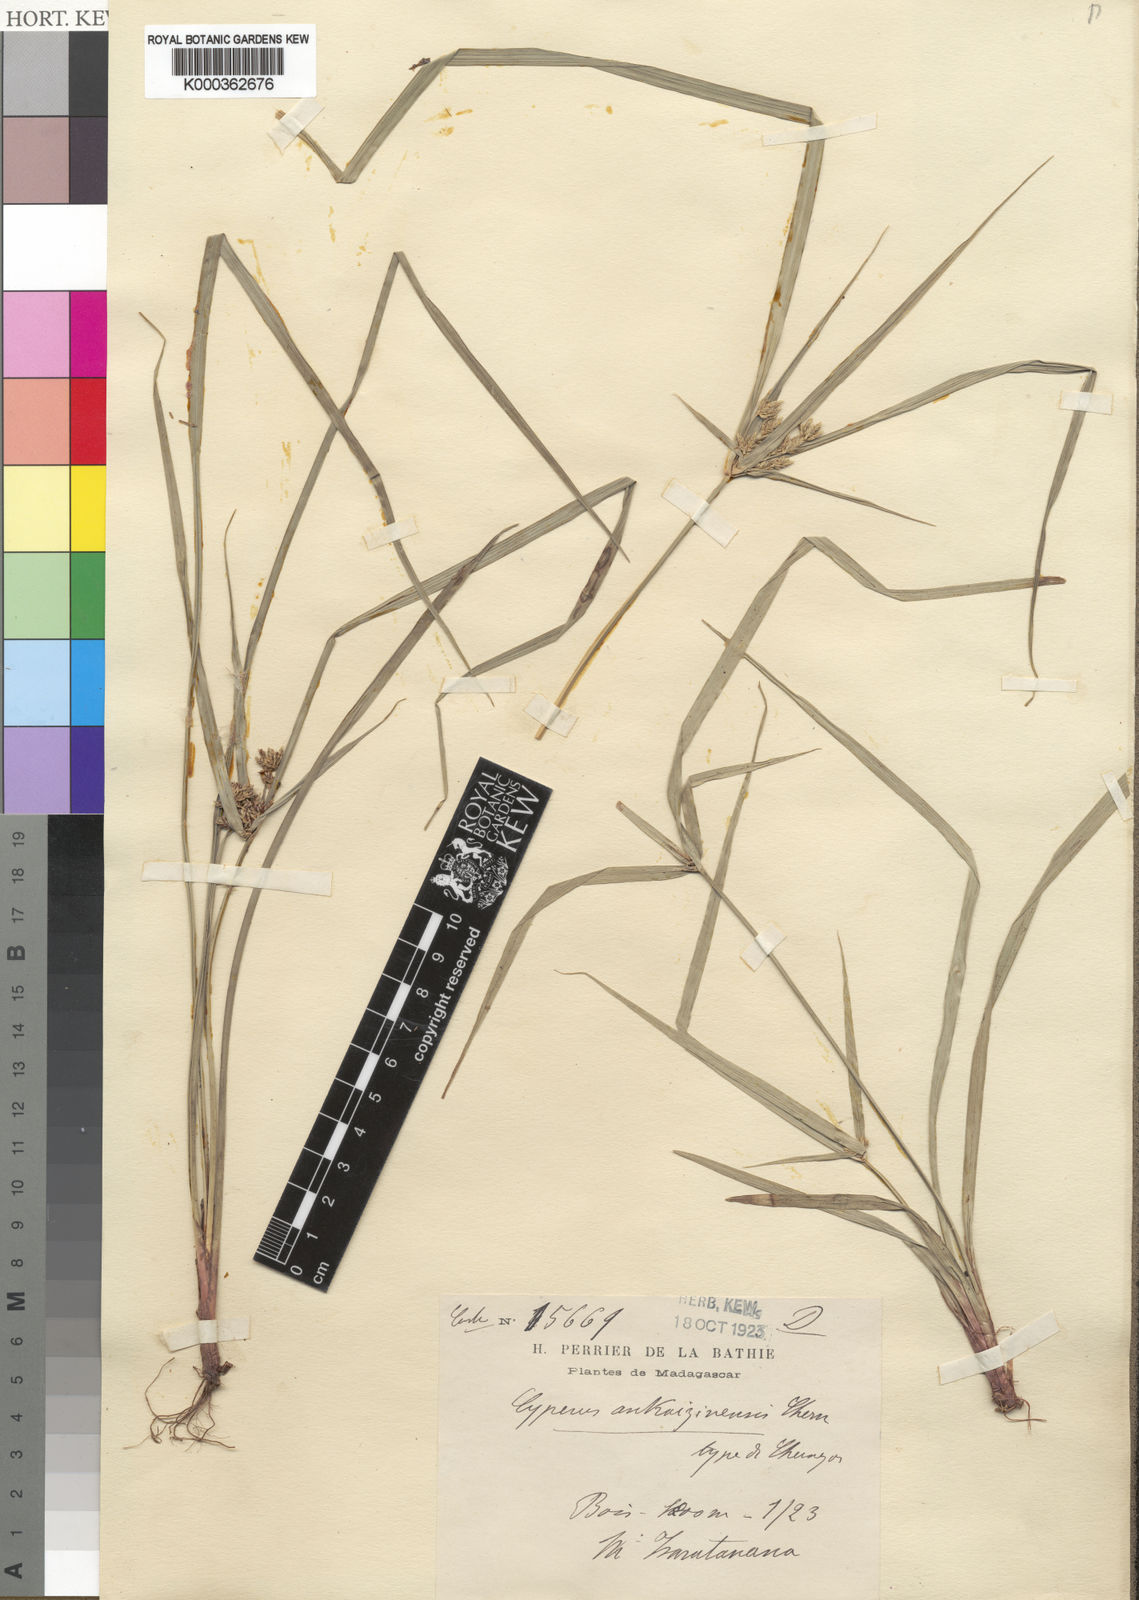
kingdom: Plantae
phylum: Tracheophyta
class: Liliopsida
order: Poales
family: Cyperaceae
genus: Cyperus
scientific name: Cyperus ankaizinensis
